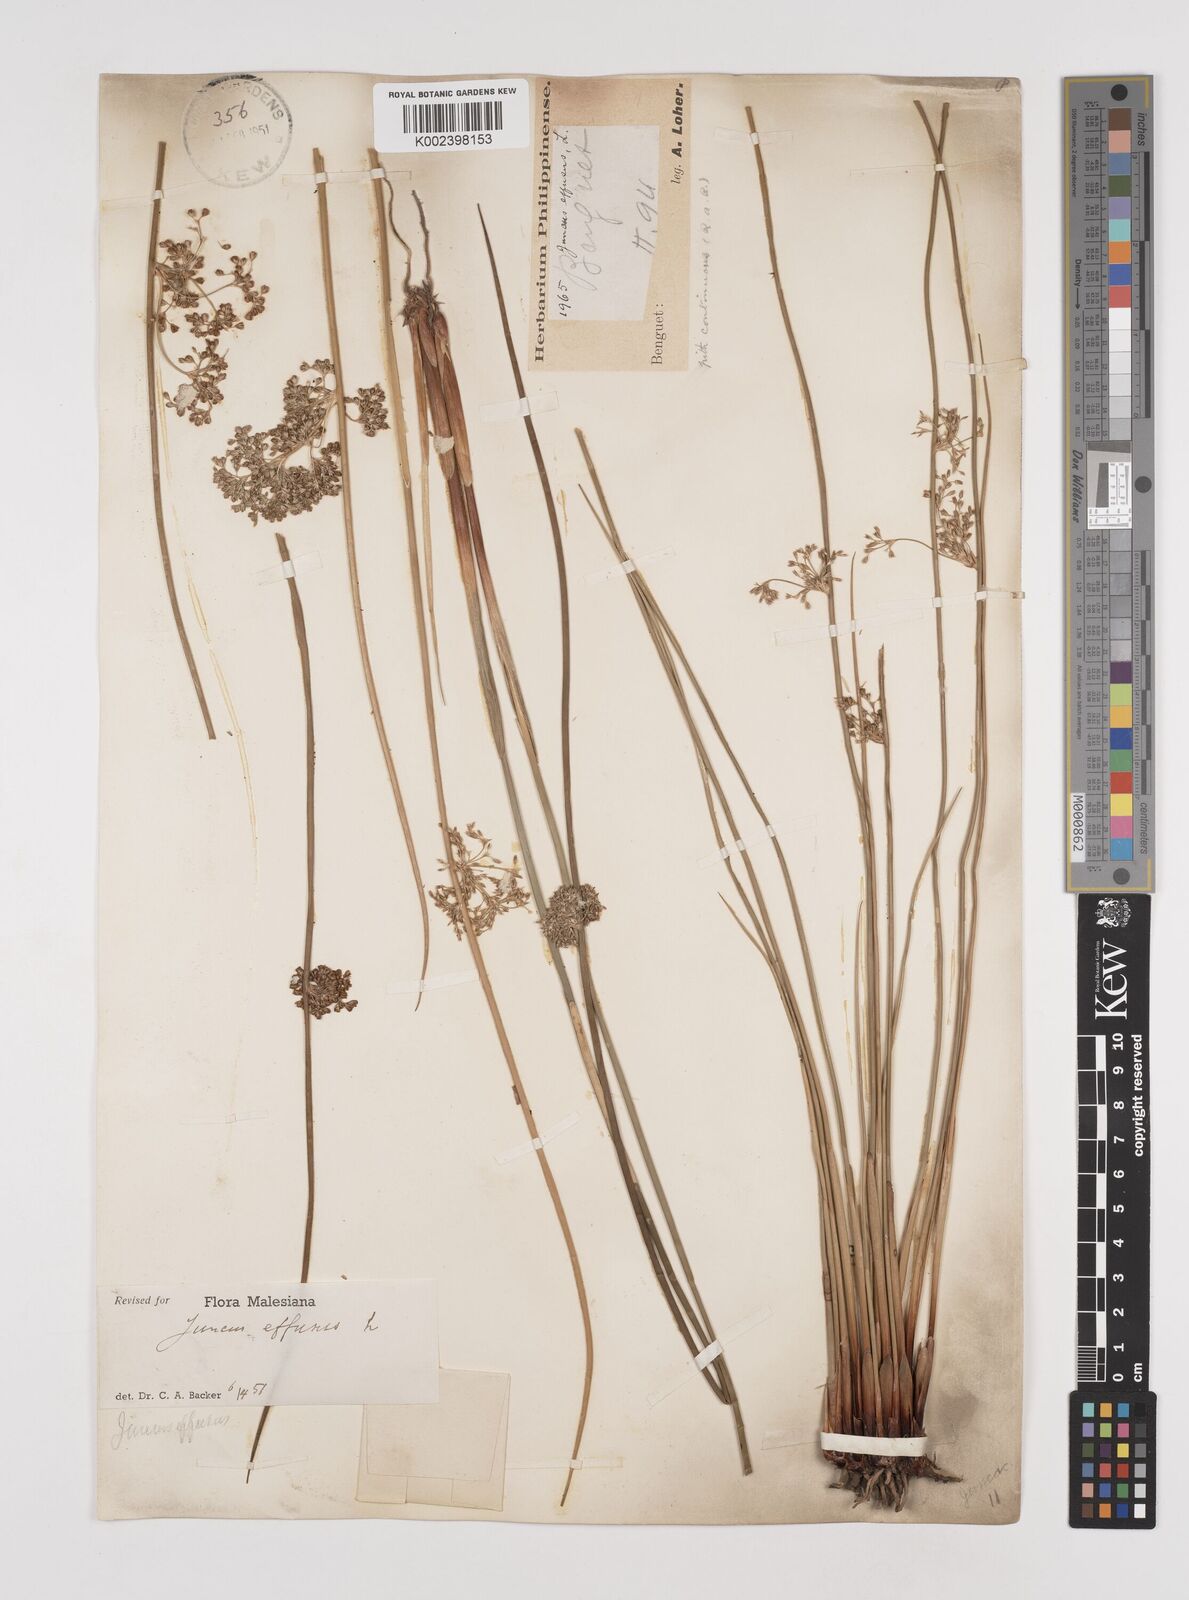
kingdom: Plantae
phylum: Tracheophyta
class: Liliopsida
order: Poales
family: Juncaceae
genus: Juncus
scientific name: Juncus decipiens
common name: Lamp rush
